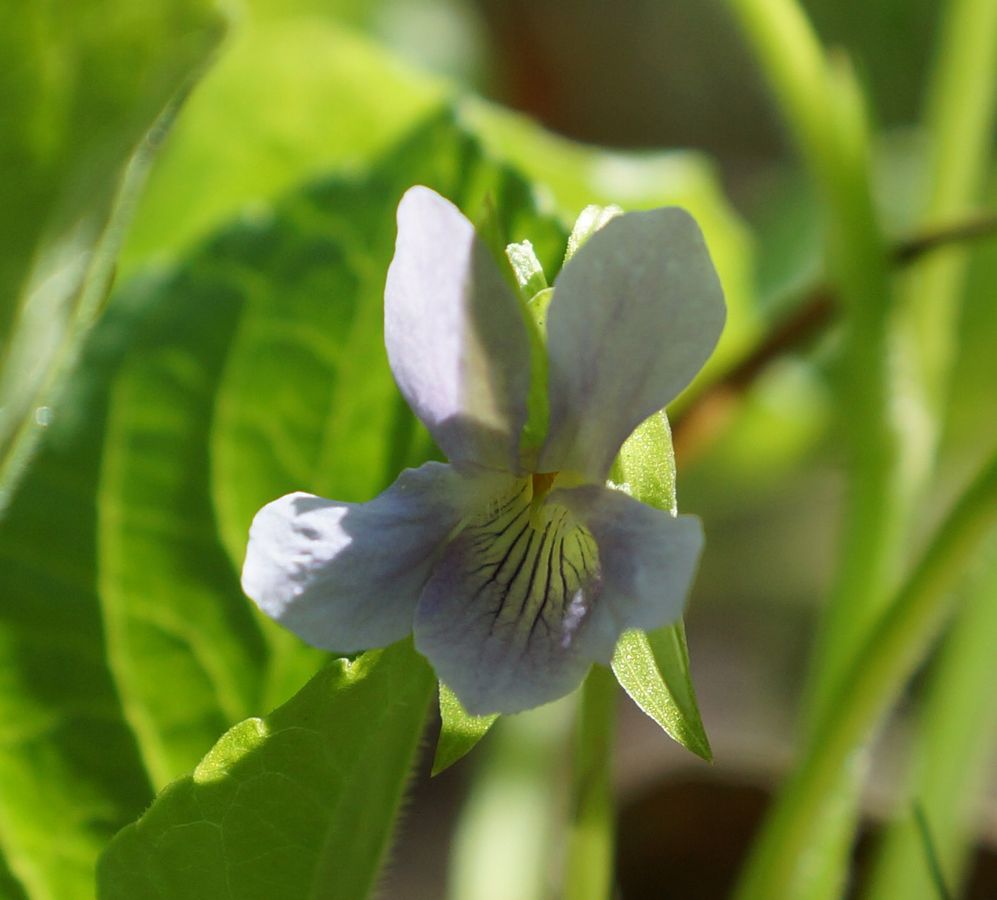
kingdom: Plantae
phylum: Tracheophyta
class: Magnoliopsida
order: Malpighiales
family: Violaceae
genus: Viola
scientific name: Viola collina
